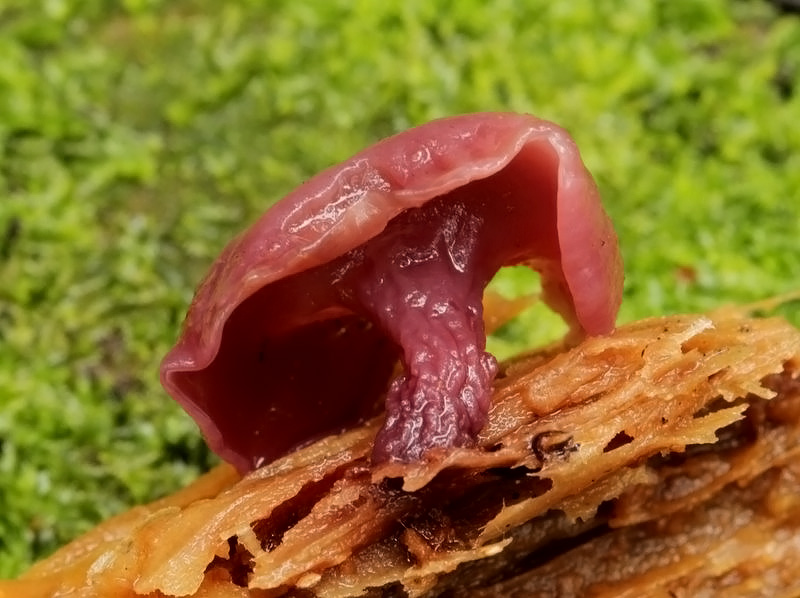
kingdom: Fungi
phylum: Ascomycota
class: Leotiomycetes
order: Helotiales
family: Gelatinodiscaceae
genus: Ascocoryne
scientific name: Ascocoryne cylichnium
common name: stor sejskive
